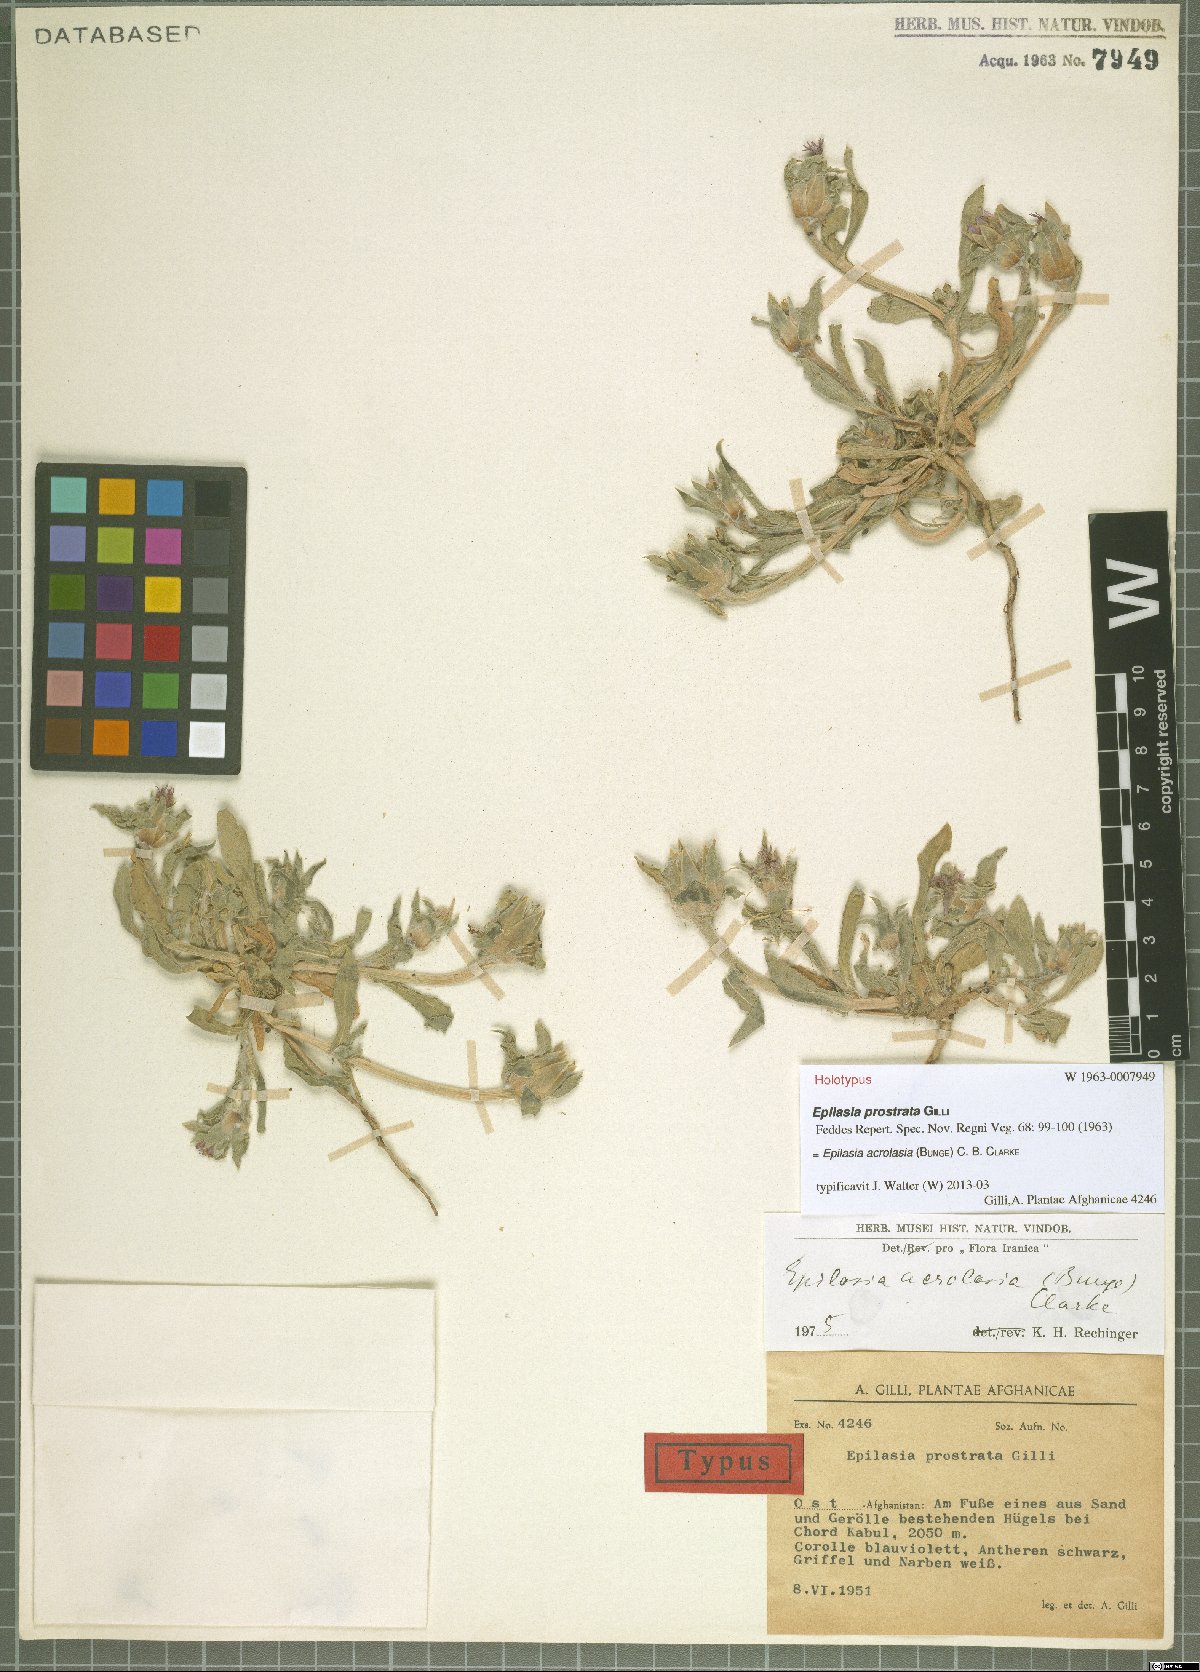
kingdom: Plantae
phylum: Tracheophyta
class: Magnoliopsida
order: Asterales
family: Asteraceae
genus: Epilasia
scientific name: Epilasia acrolasia
